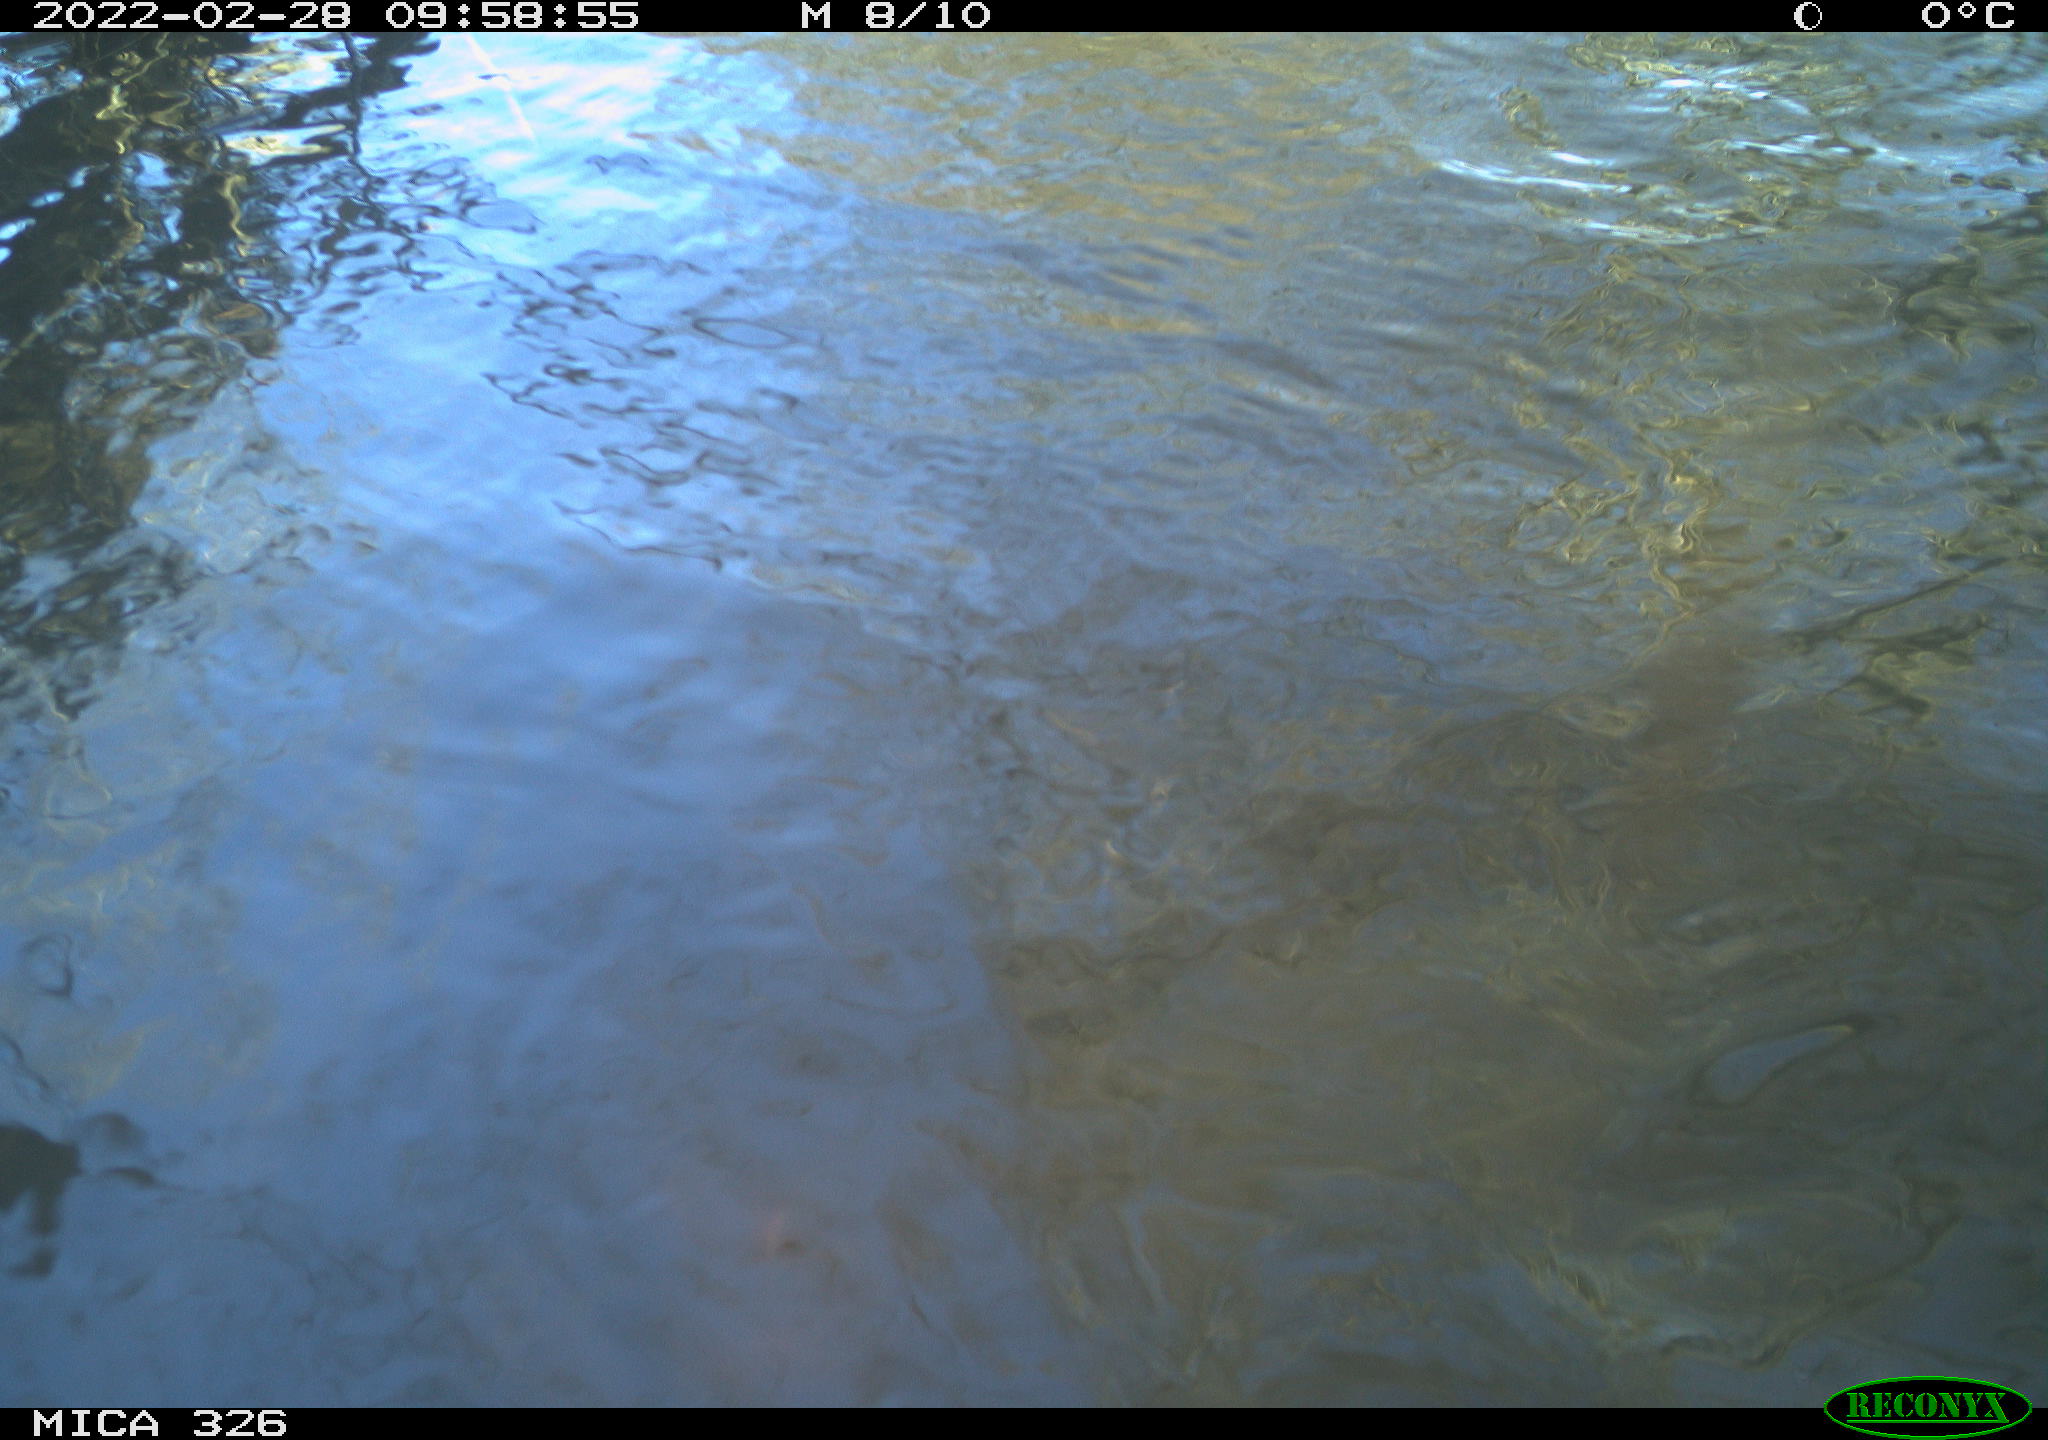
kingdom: Animalia
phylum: Chordata
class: Mammalia
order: Rodentia
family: Cricetidae
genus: Ondatra
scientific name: Ondatra zibethicus
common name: Muskrat
